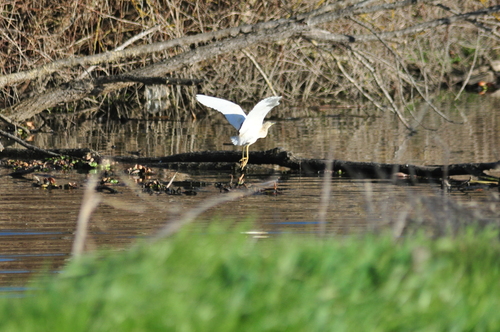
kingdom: Animalia
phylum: Chordata
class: Aves
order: Pelecaniformes
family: Ardeidae
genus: Ardeola
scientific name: Ardeola ralloides
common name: Squacco heron
